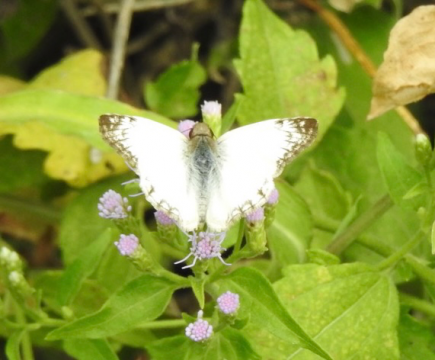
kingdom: Animalia
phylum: Arthropoda
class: Insecta
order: Lepidoptera
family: Hesperiidae
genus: Heliopetes
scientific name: Heliopetes laviana
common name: Laviana White-Skipper
